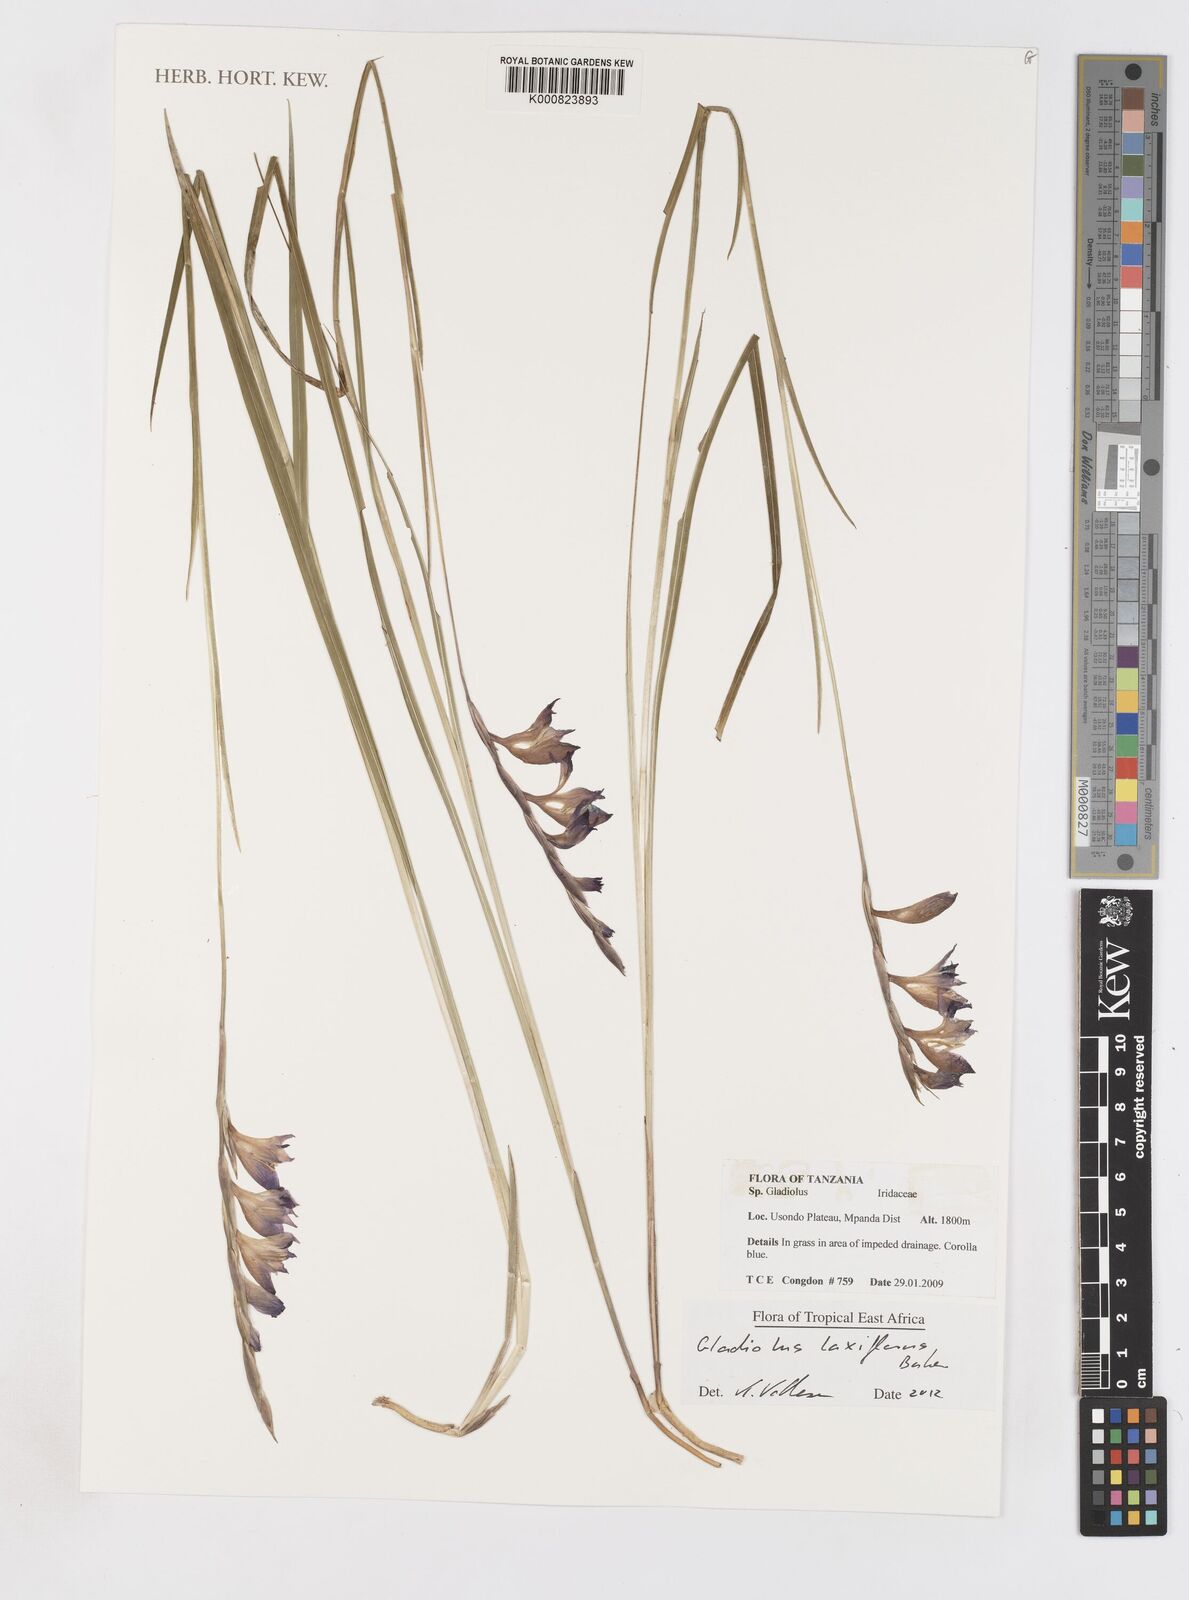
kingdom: Plantae
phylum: Tracheophyta
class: Liliopsida
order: Asparagales
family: Iridaceae
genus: Gladiolus
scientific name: Gladiolus laxiflorus
